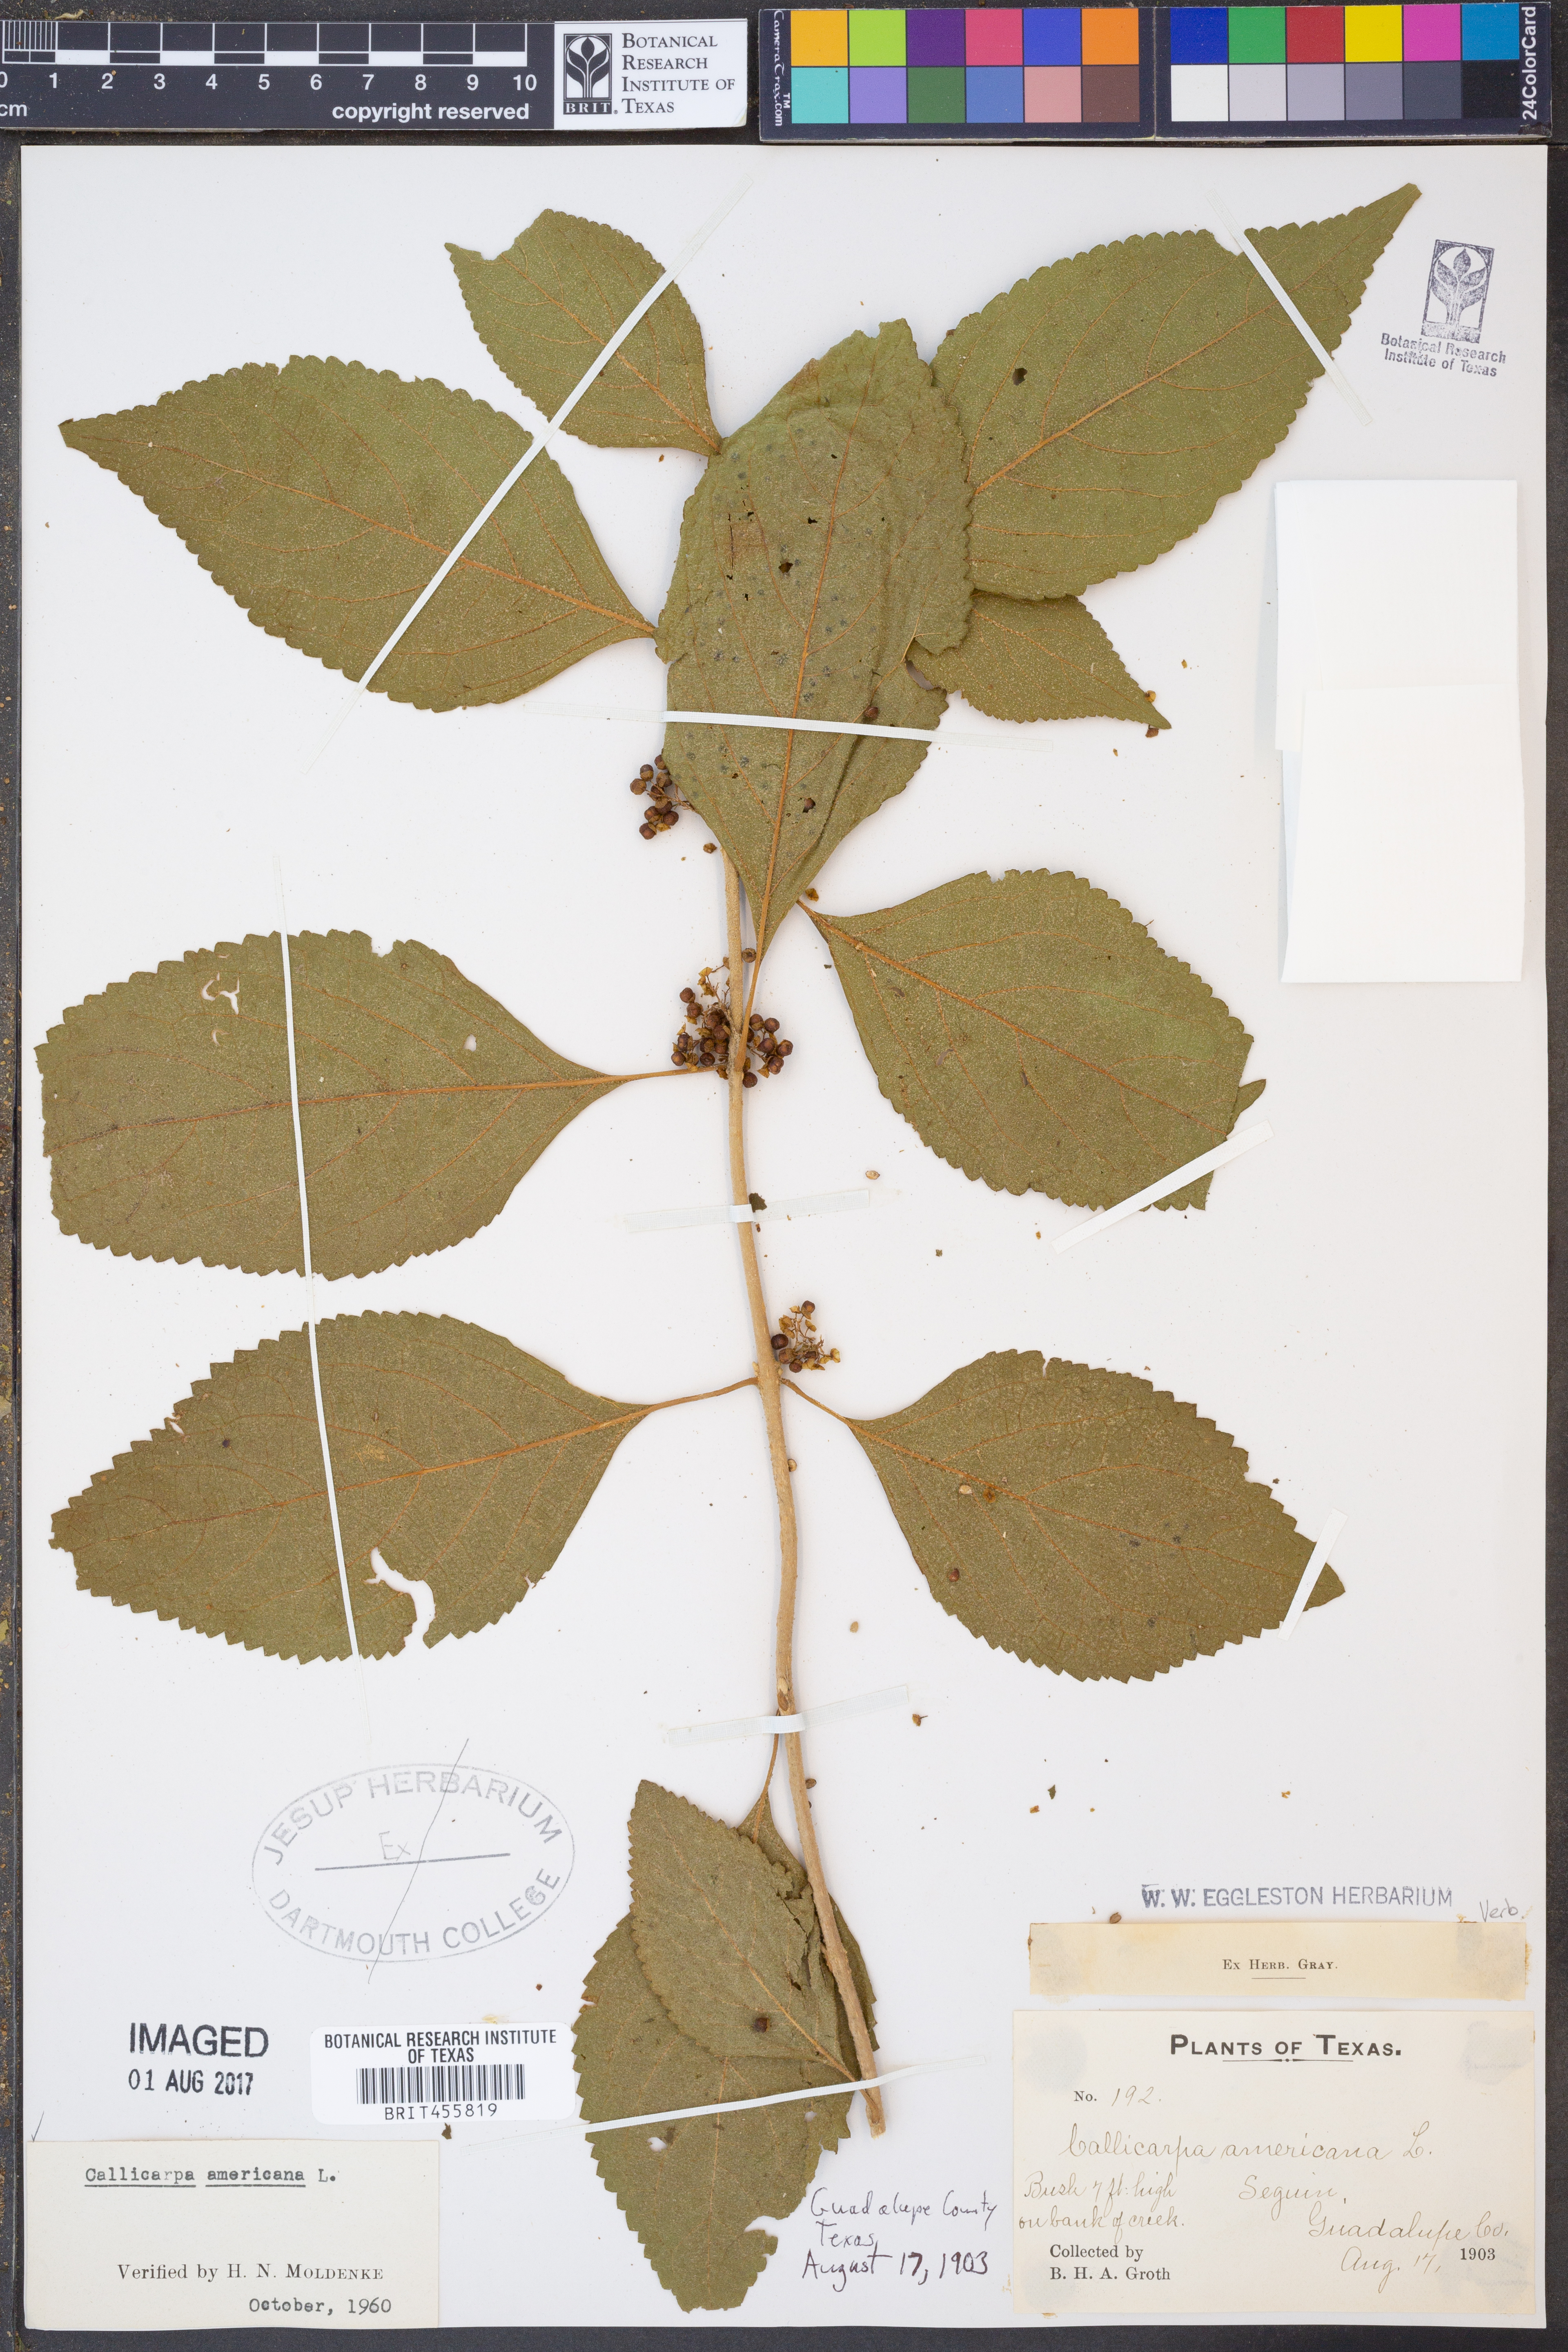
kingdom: Plantae
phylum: Tracheophyta
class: Magnoliopsida
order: Lamiales
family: Lamiaceae
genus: Callicarpa
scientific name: Callicarpa americana
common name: American beautyberry
